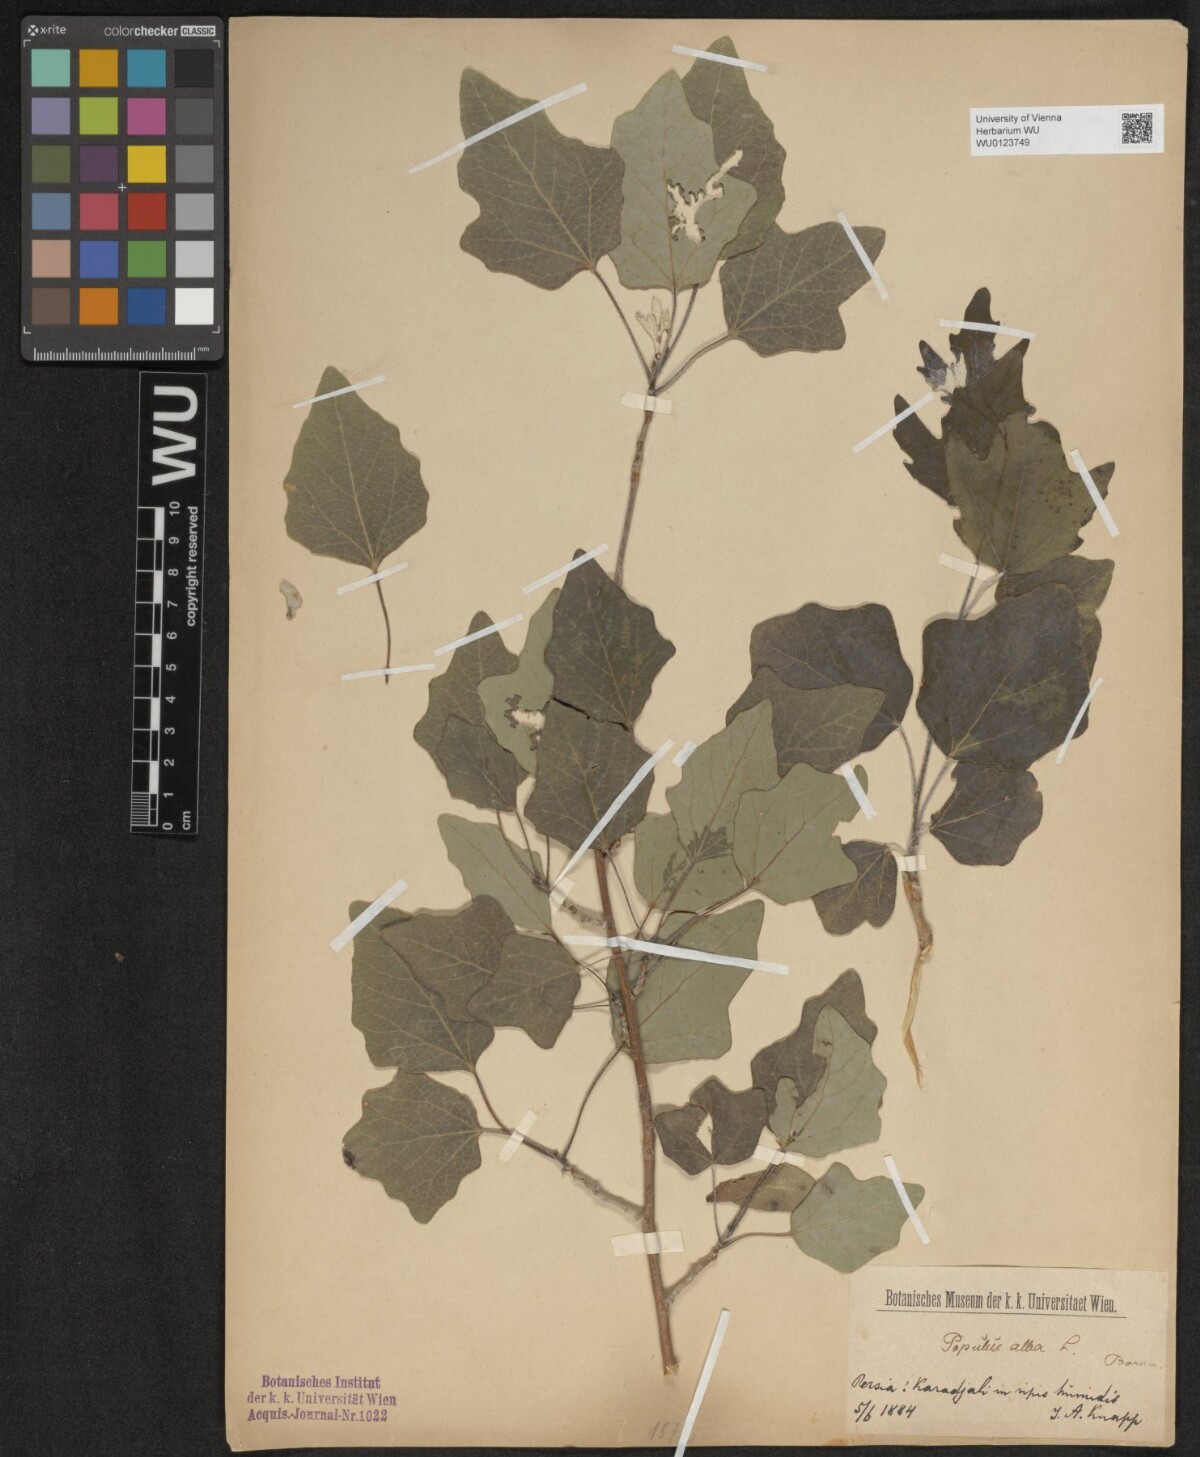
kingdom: Plantae
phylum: Tracheophyta
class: Magnoliopsida
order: Malpighiales
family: Salicaceae
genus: Populus
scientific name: Populus alba
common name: White poplar
